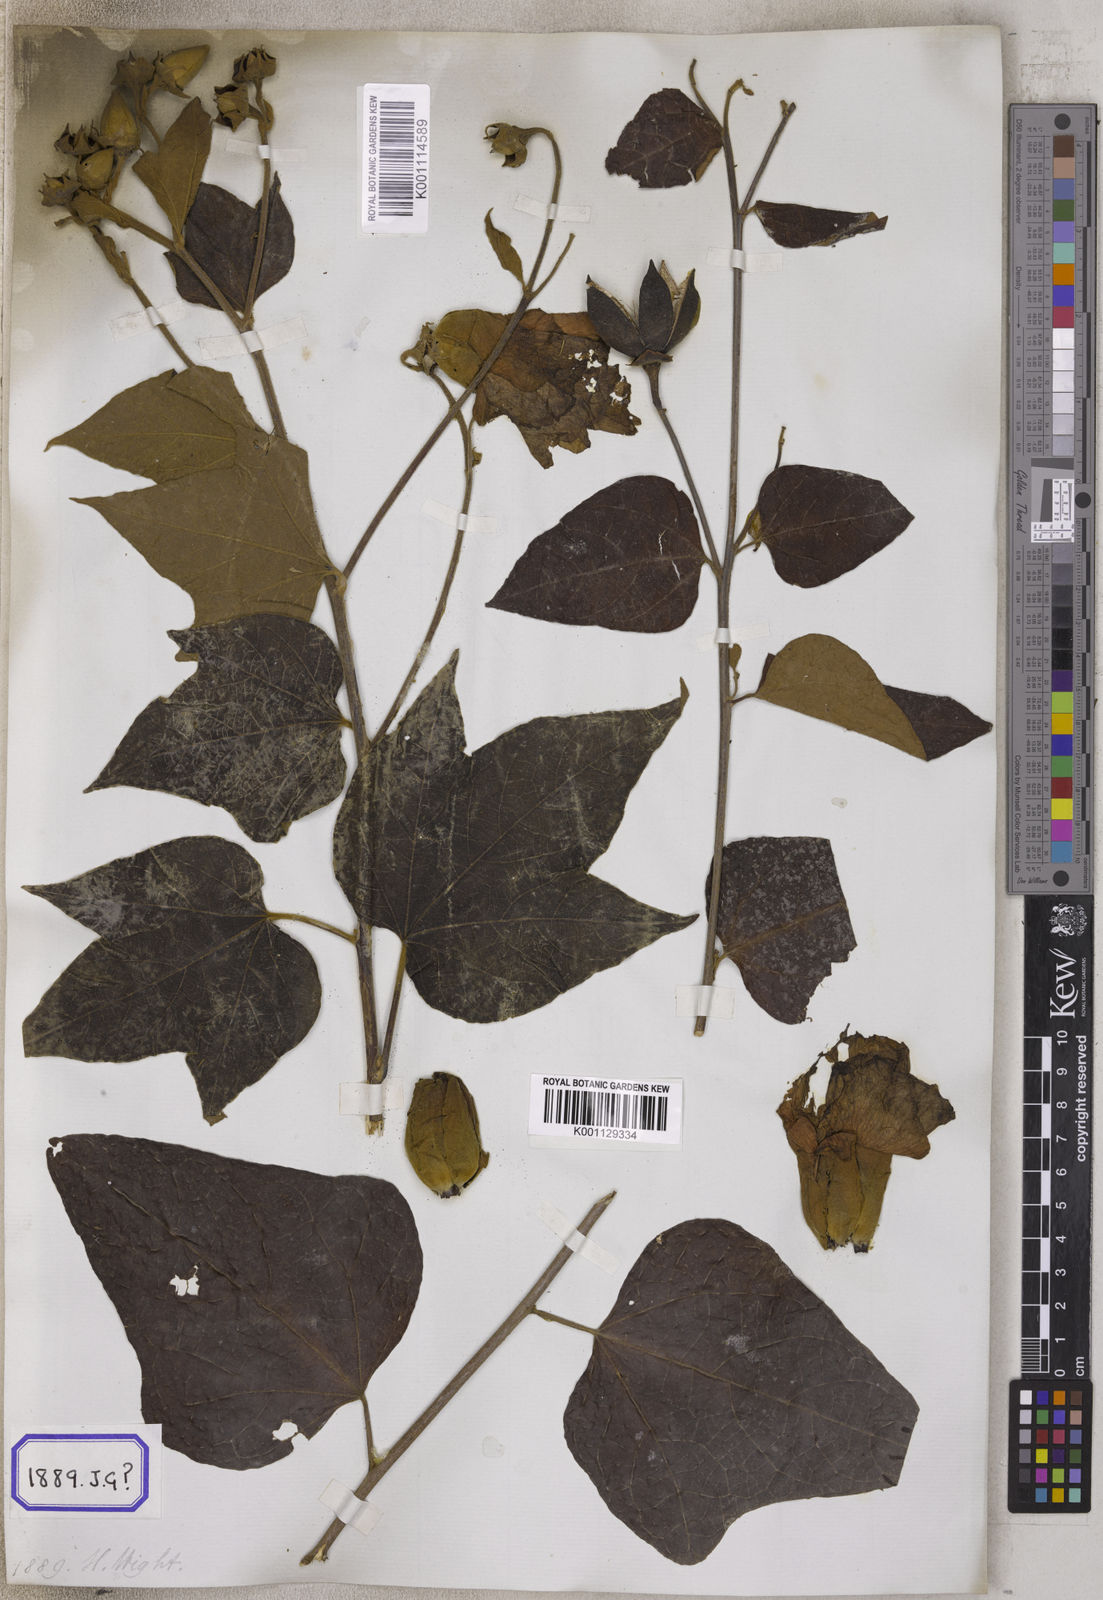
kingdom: Plantae
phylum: Tracheophyta
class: Magnoliopsida
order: Malvales
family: Malvaceae
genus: Thespesia
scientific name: Thespesia lampas
